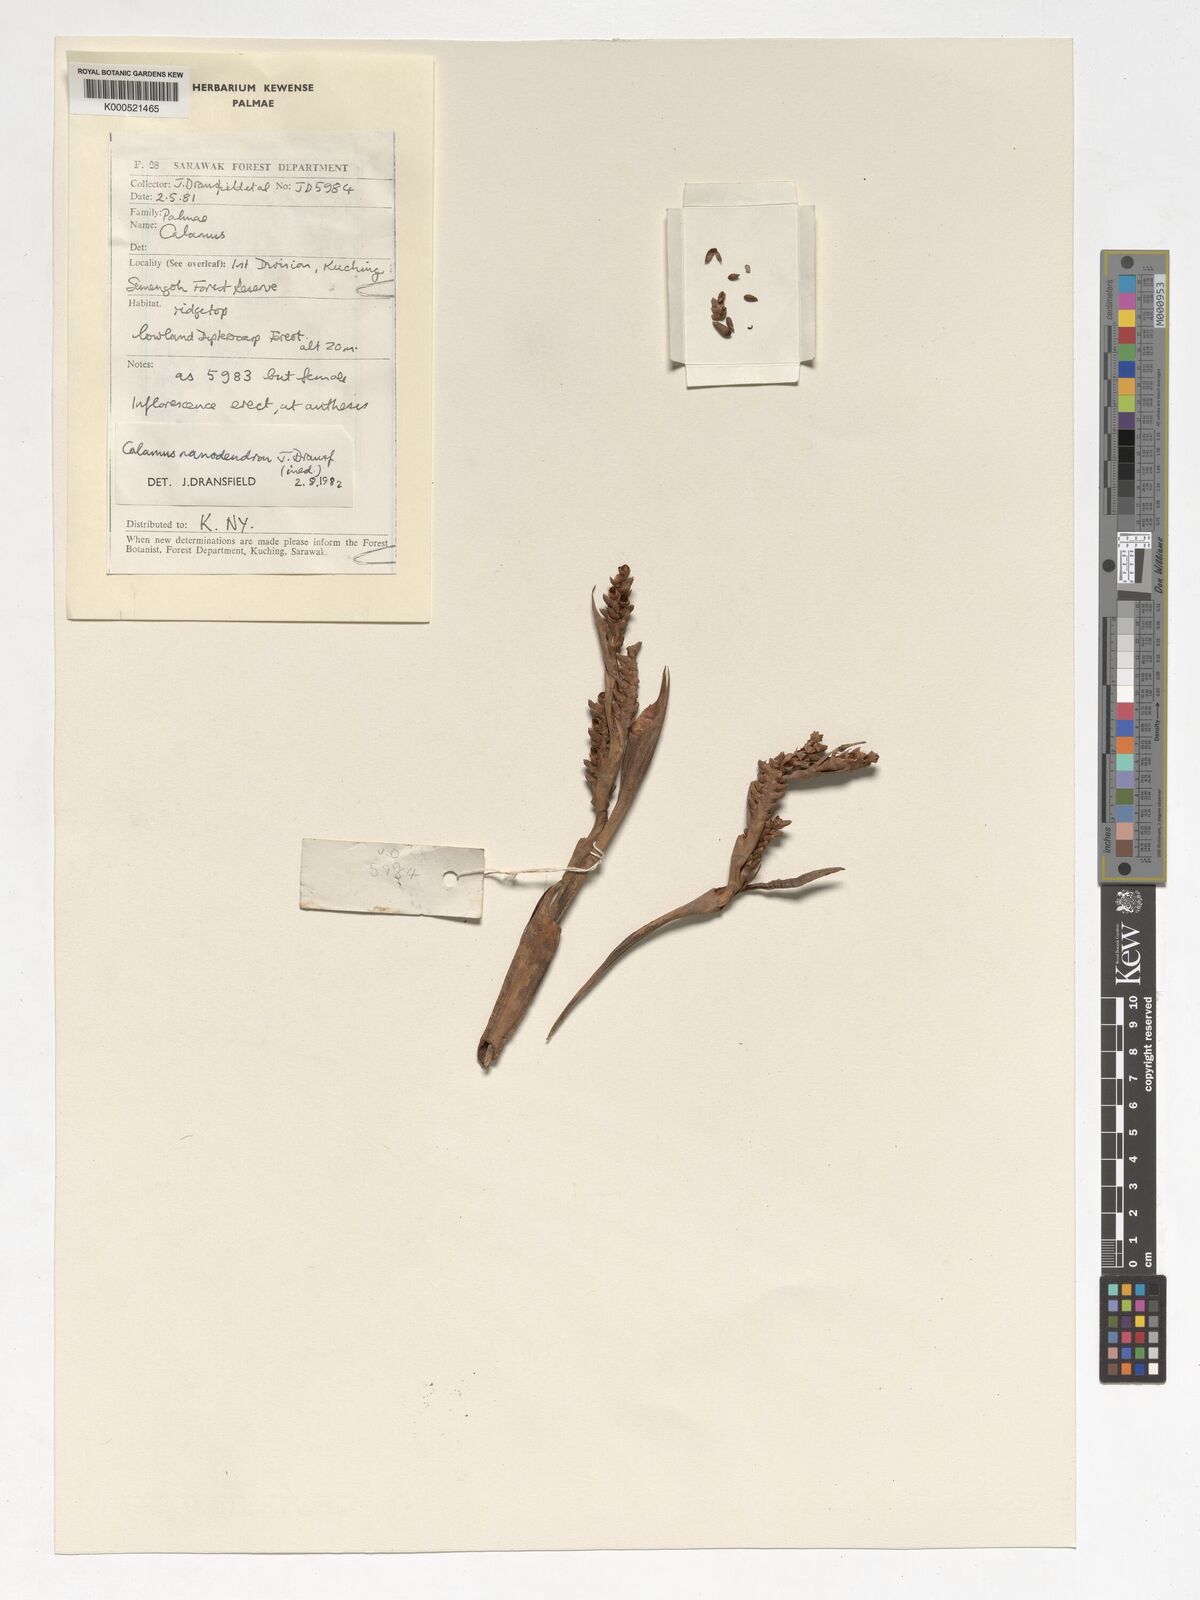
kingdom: Plantae
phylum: Tracheophyta
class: Liliopsida
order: Arecales
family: Arecaceae
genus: Calamus
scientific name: Calamus nanodendron
